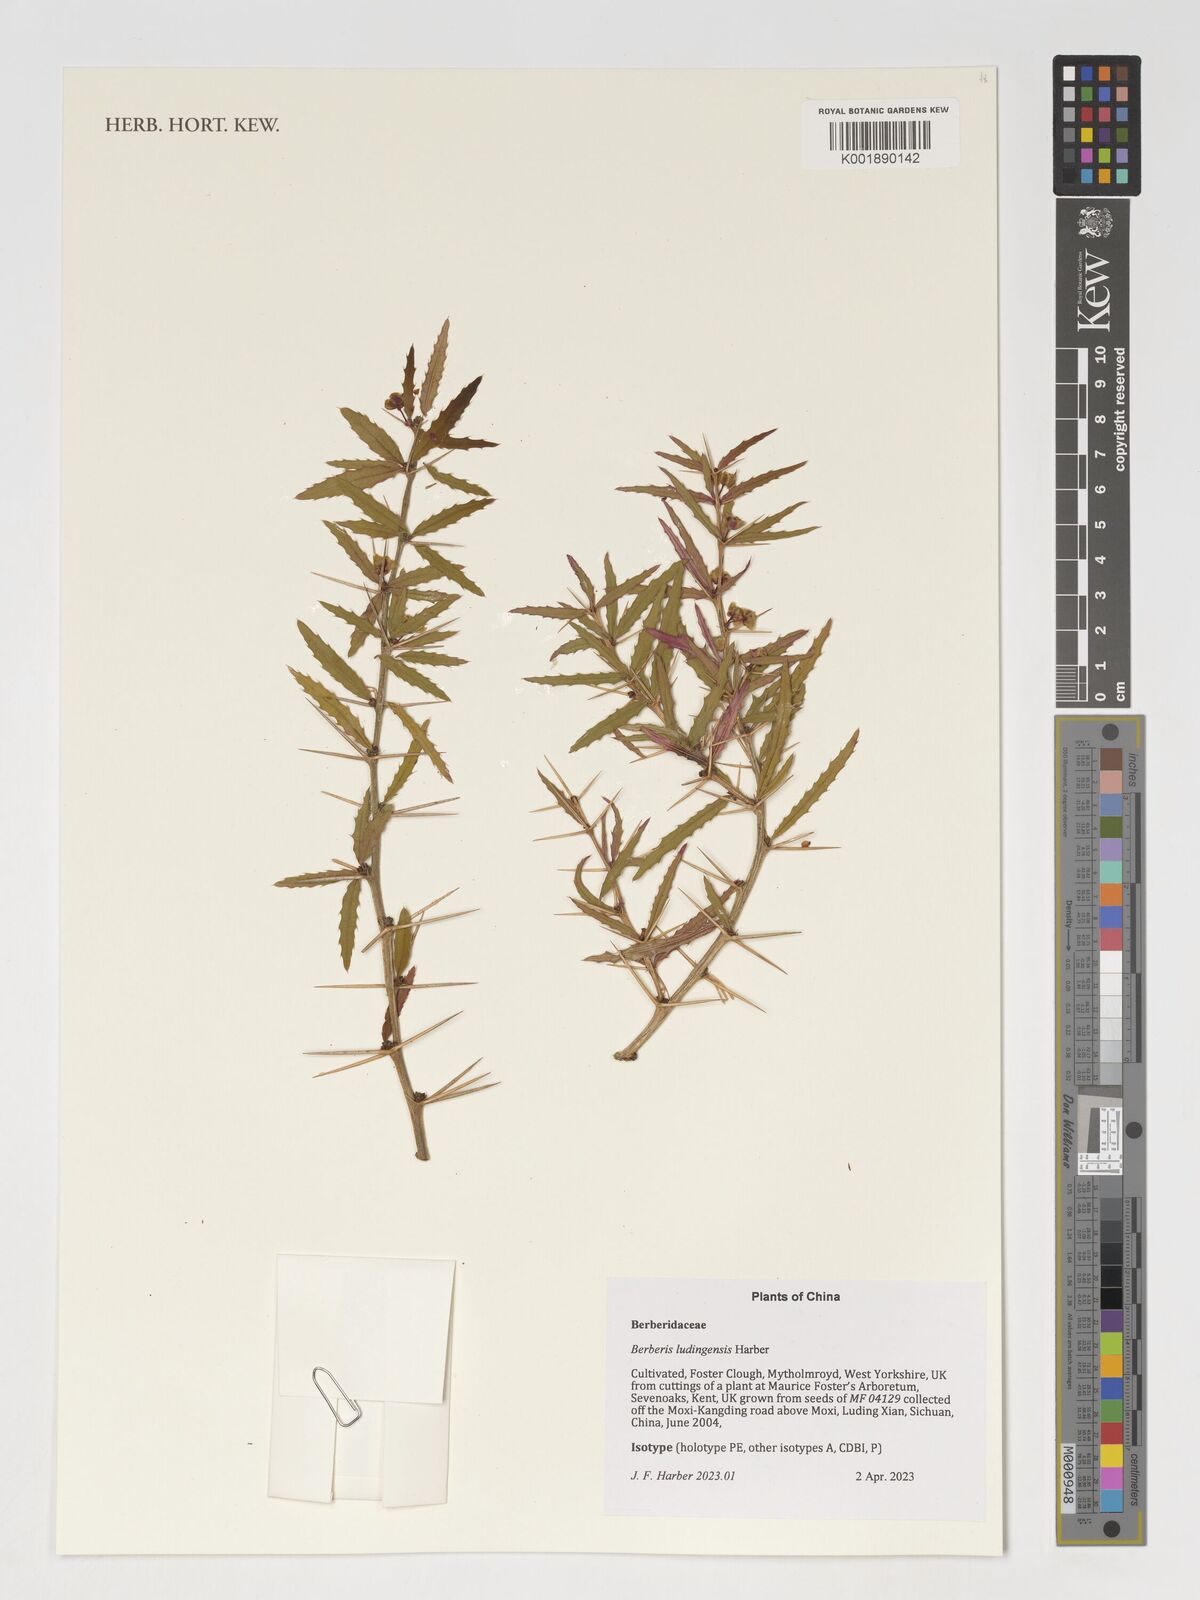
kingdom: Plantae
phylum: Tracheophyta
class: Magnoliopsida
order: Ranunculales
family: Berberidaceae
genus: Berberis
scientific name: Berberis
